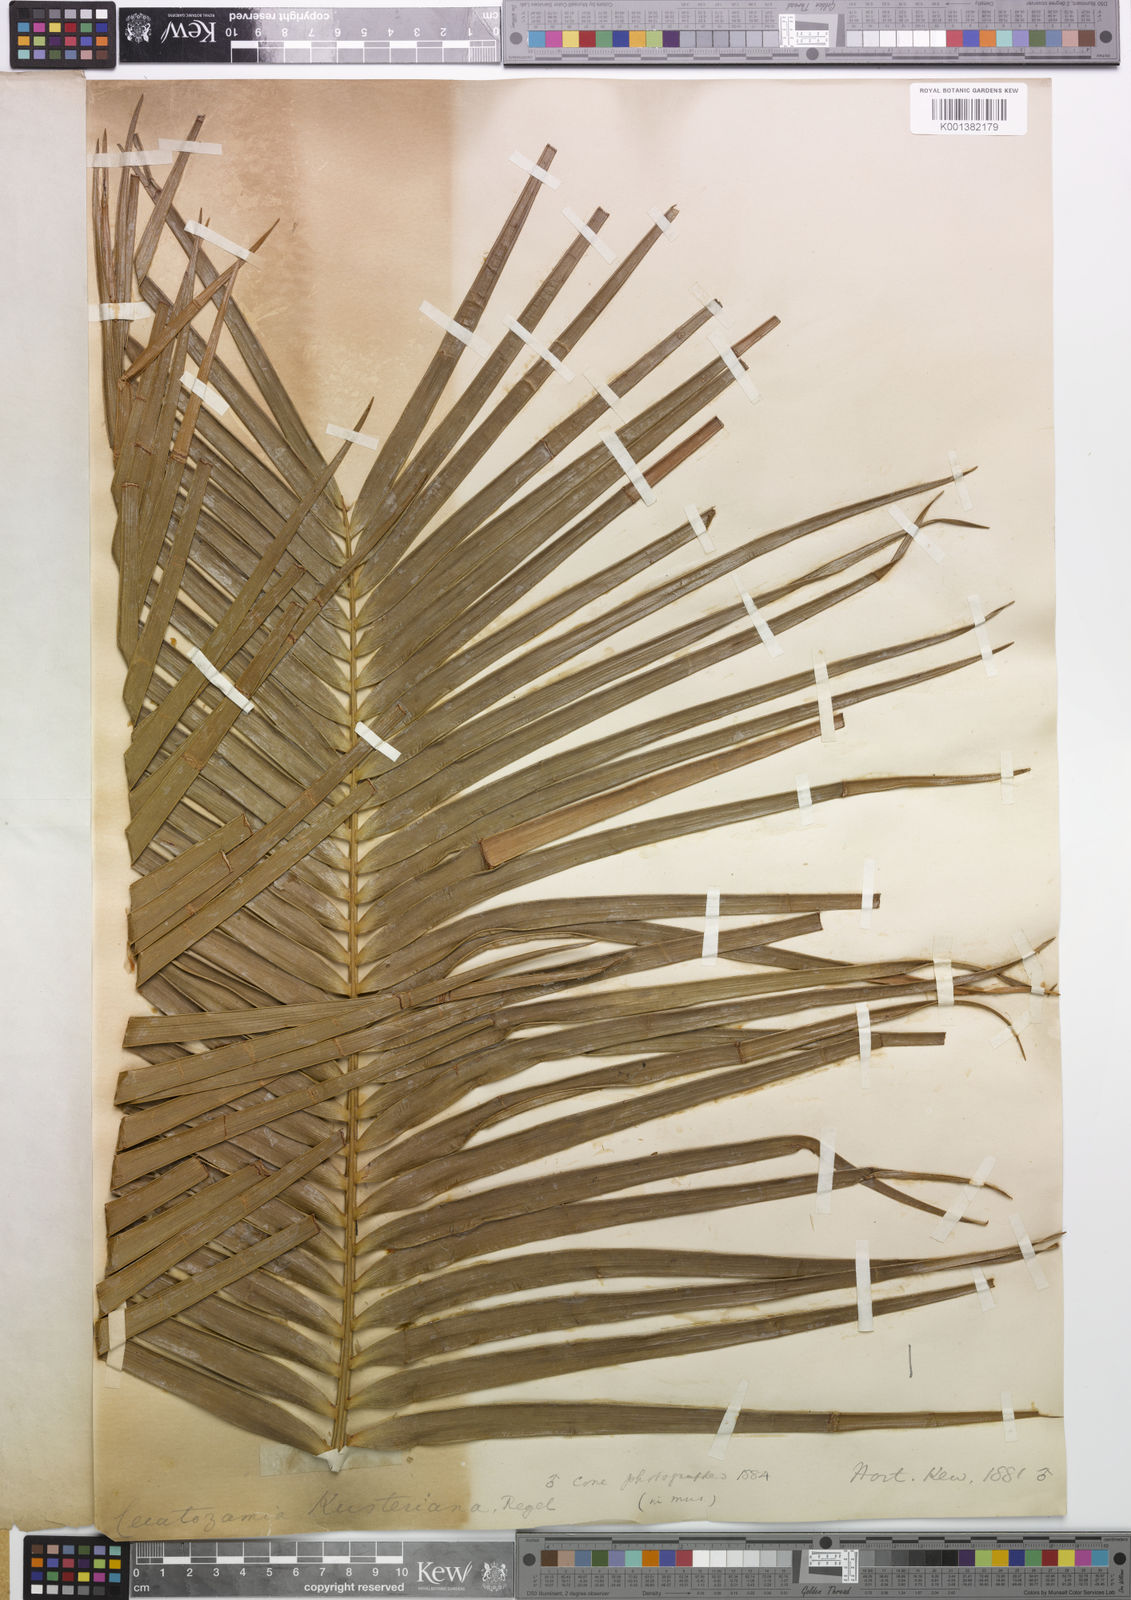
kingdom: Plantae
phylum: Tracheophyta
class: Cycadopsida
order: Cycadales
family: Zamiaceae
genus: Ceratozamia
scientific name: Ceratozamia kuesteriana
